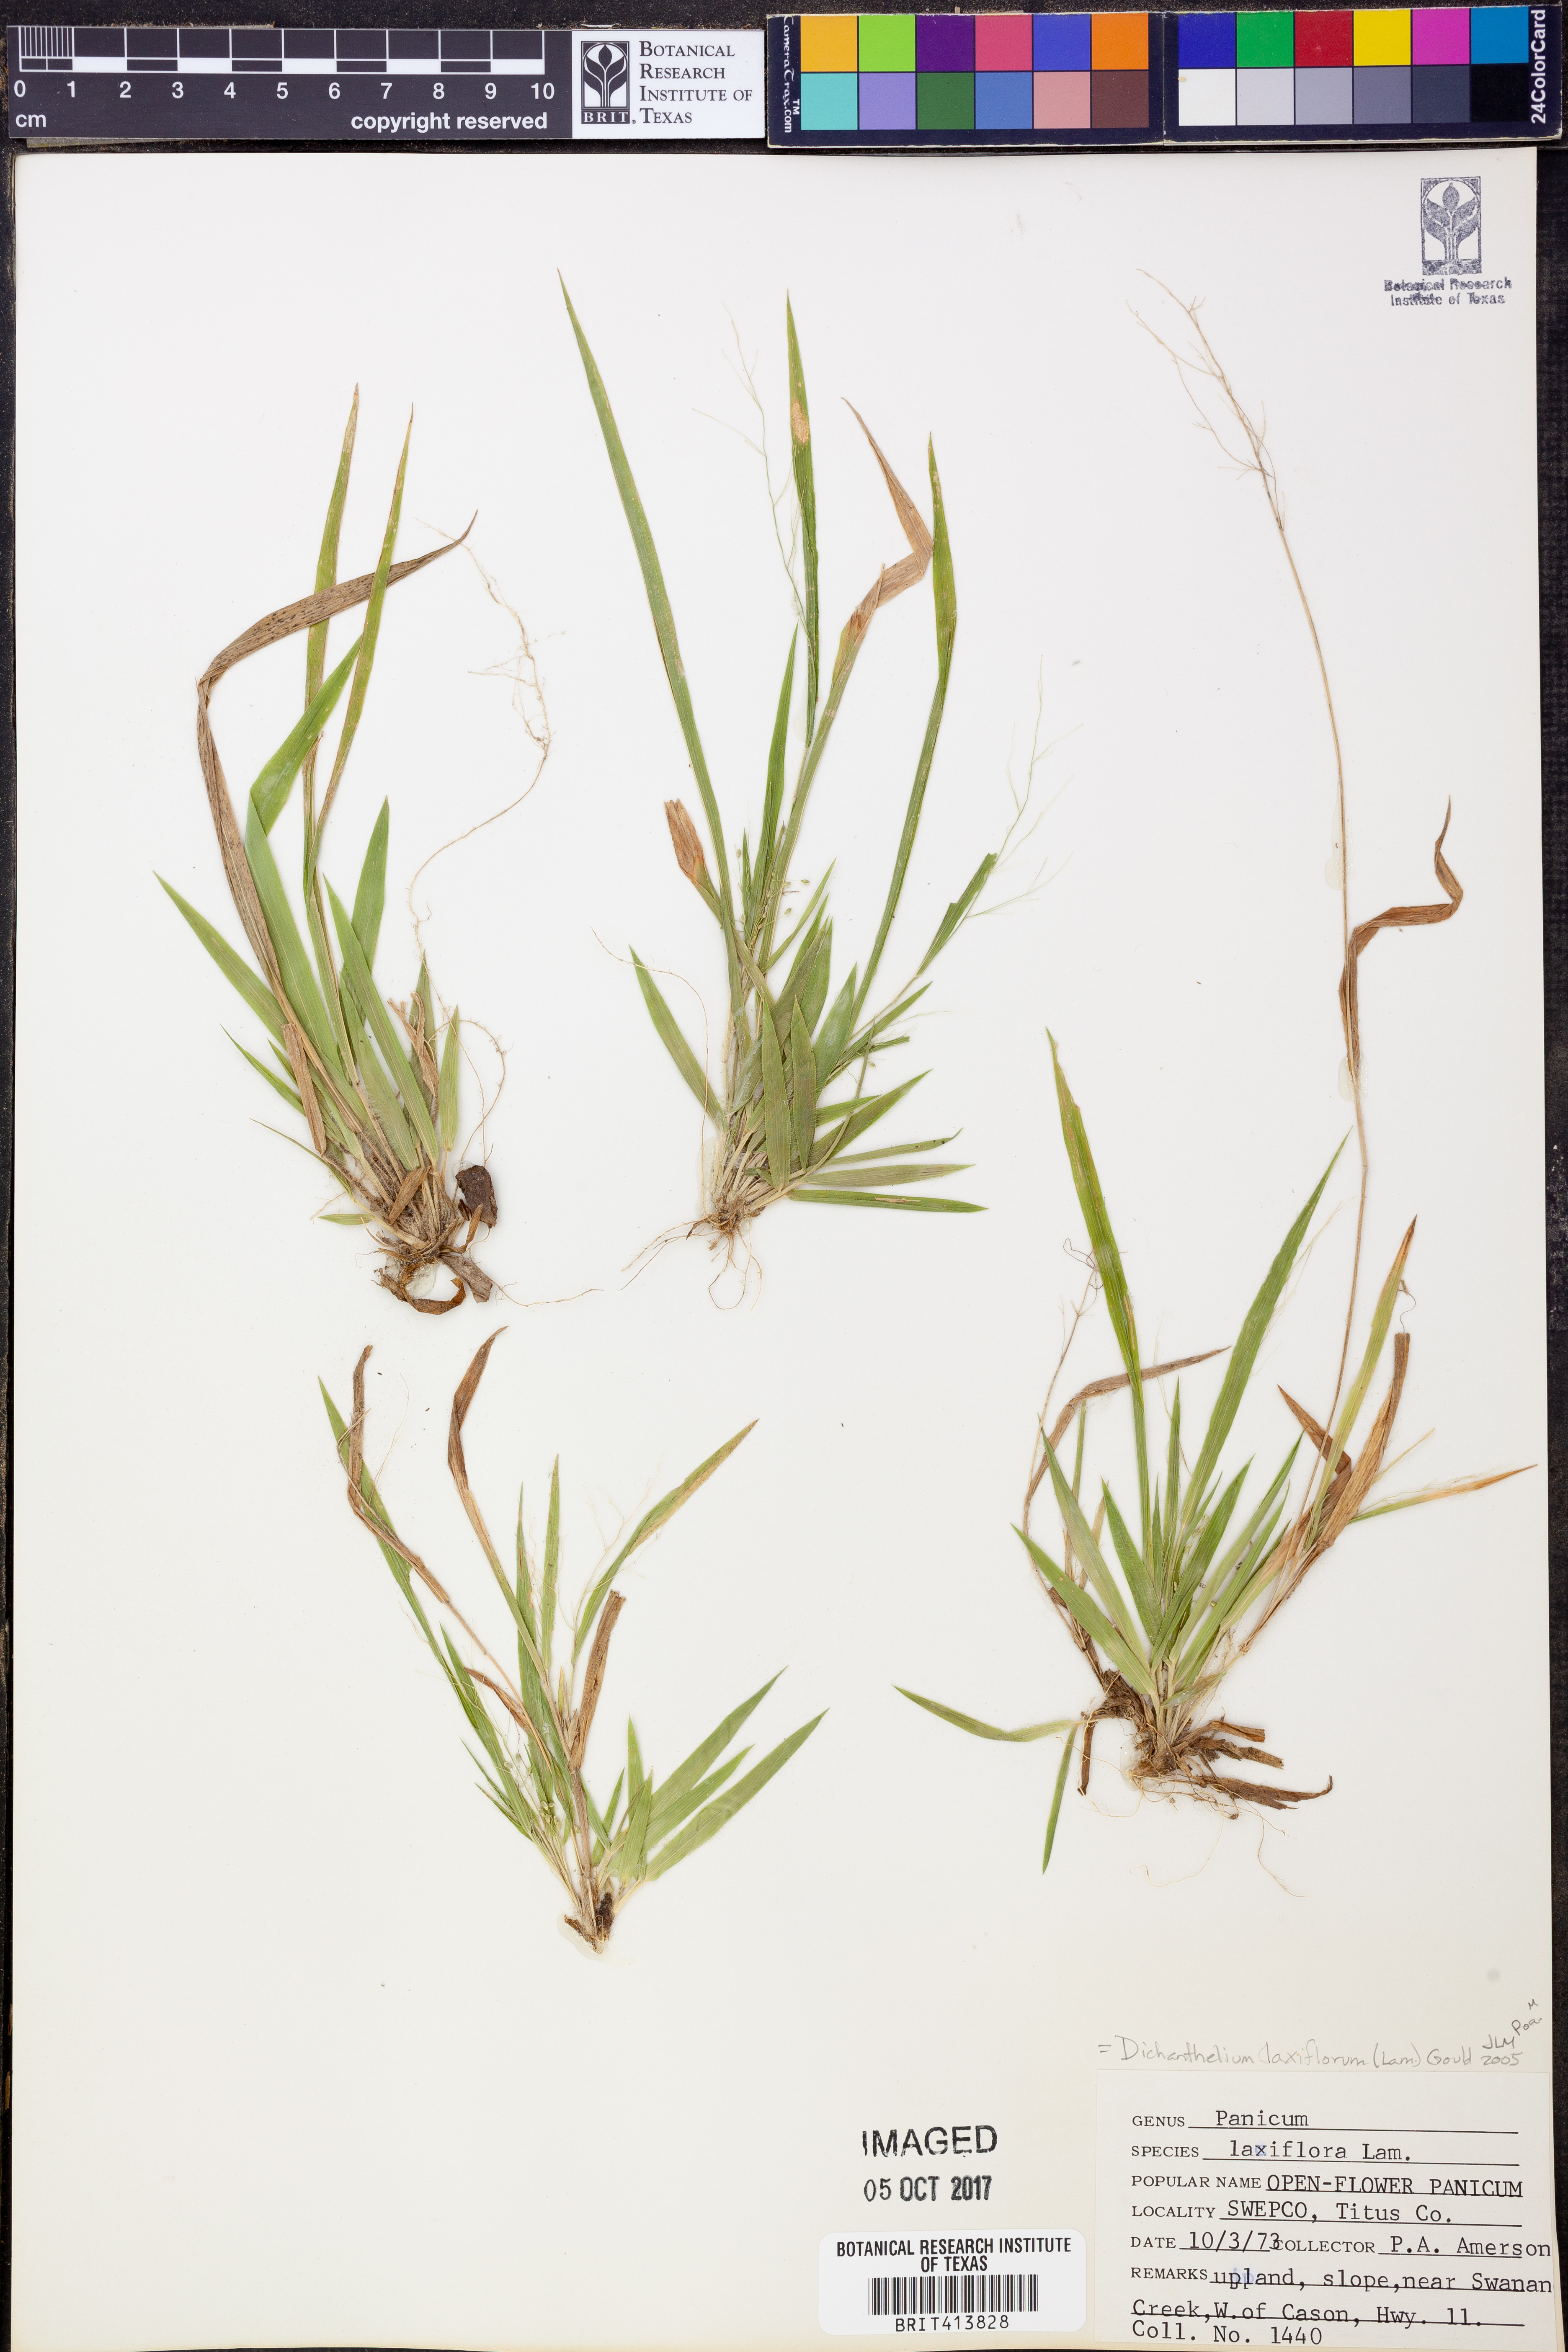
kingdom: Plantae
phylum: Tracheophyta
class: Liliopsida
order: Poales
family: Poaceae
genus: Dichanthelium
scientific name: Dichanthelium laxiflorum
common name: Soft-tuft panic grass
